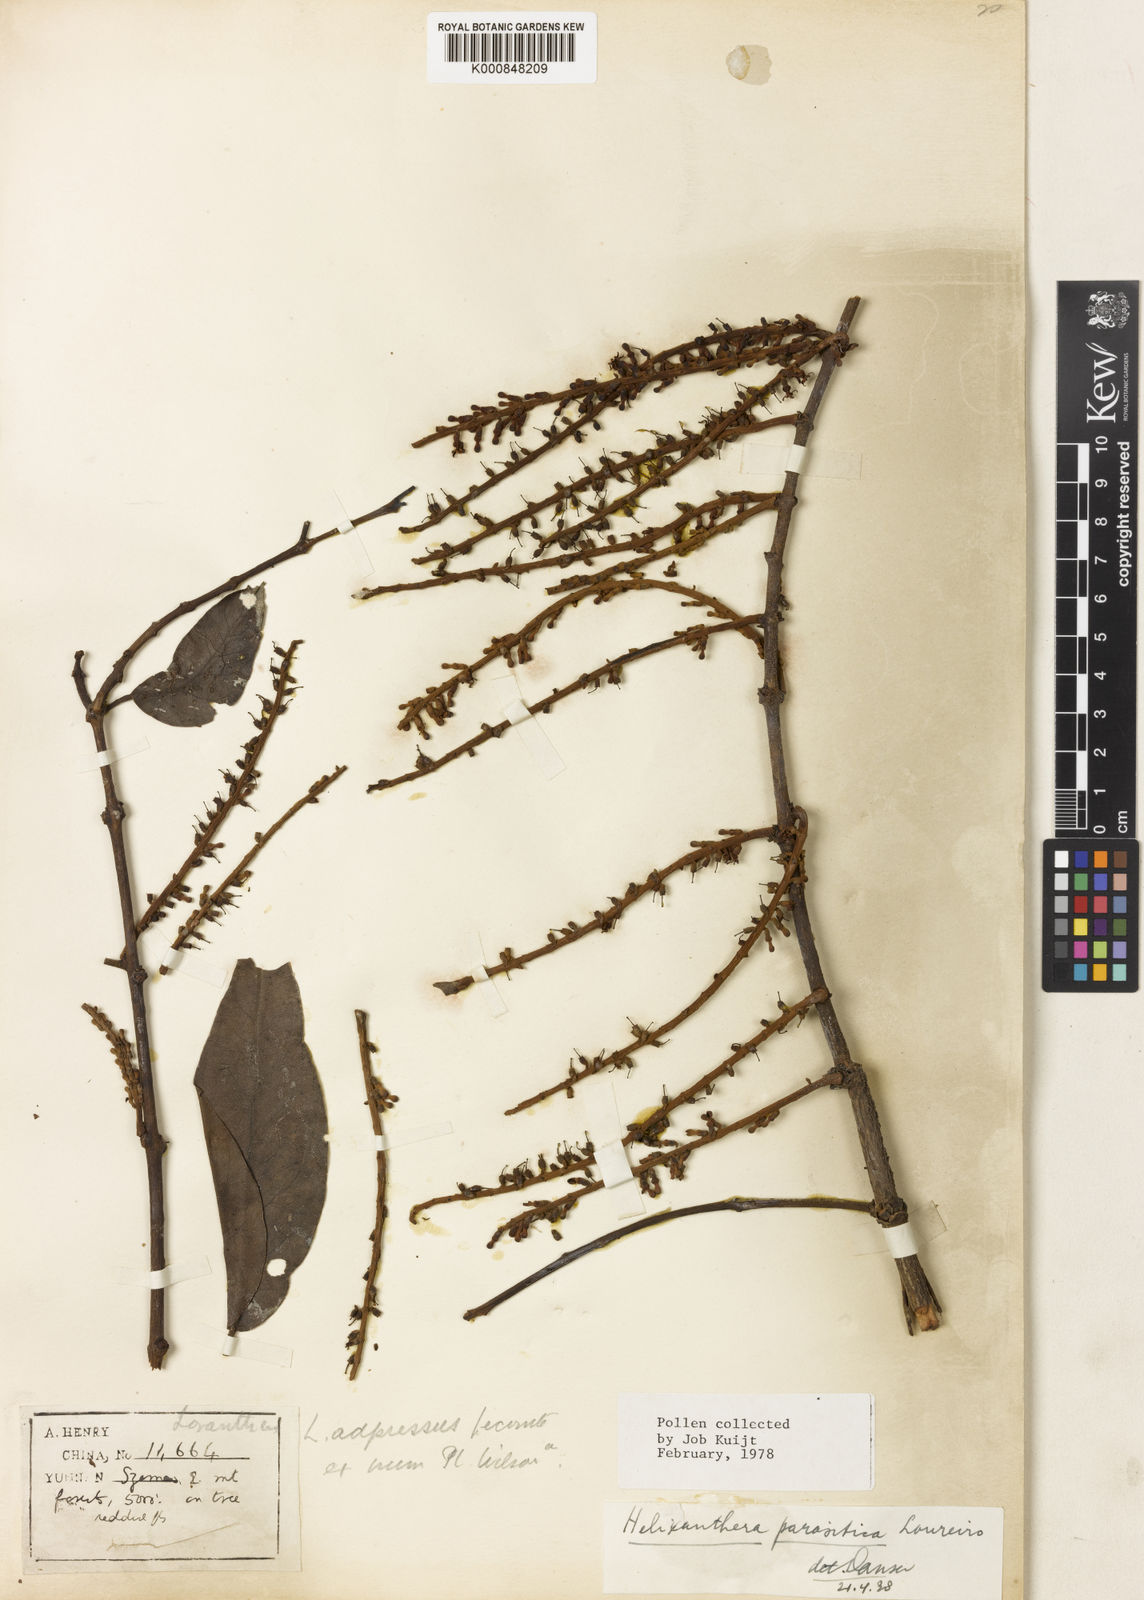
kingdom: Plantae
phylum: Tracheophyta
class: Magnoliopsida
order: Santalales
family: Loranthaceae
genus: Helixanthera
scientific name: Helixanthera parasitica
